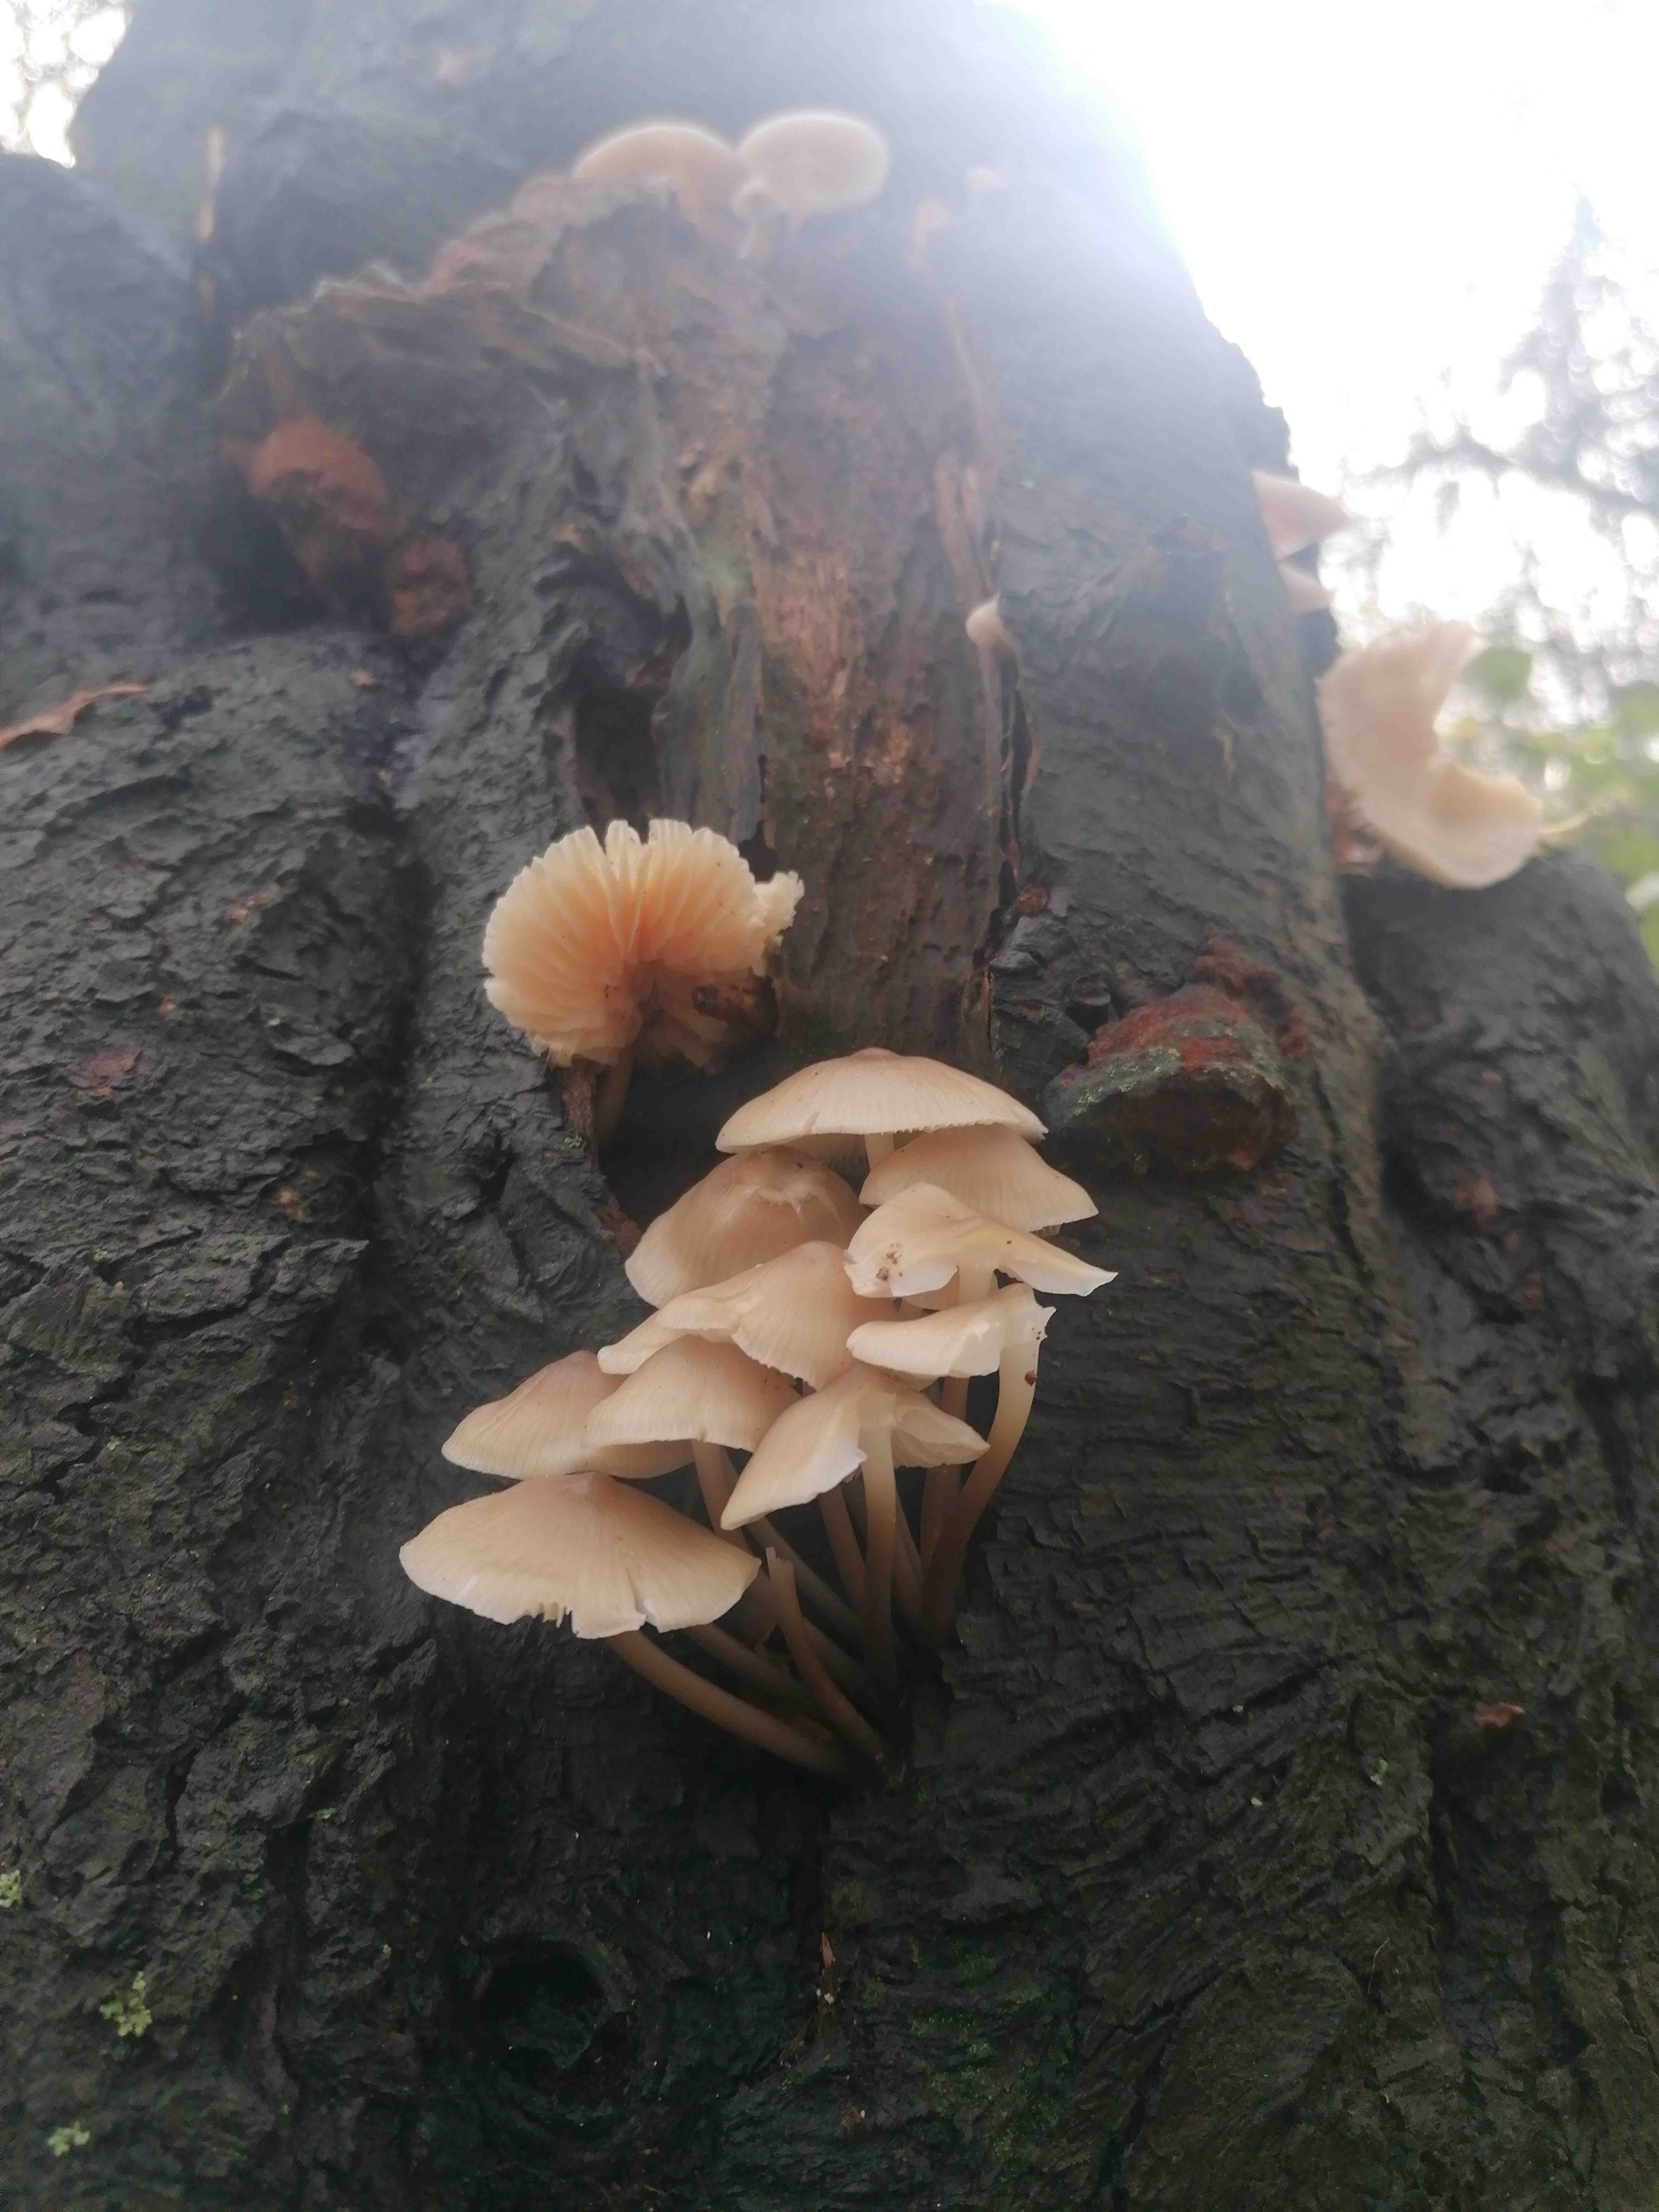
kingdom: Fungi
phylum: Basidiomycota
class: Agaricomycetes
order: Agaricales
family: Mycenaceae
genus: Mycena
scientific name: Mycena
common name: huesvamp
